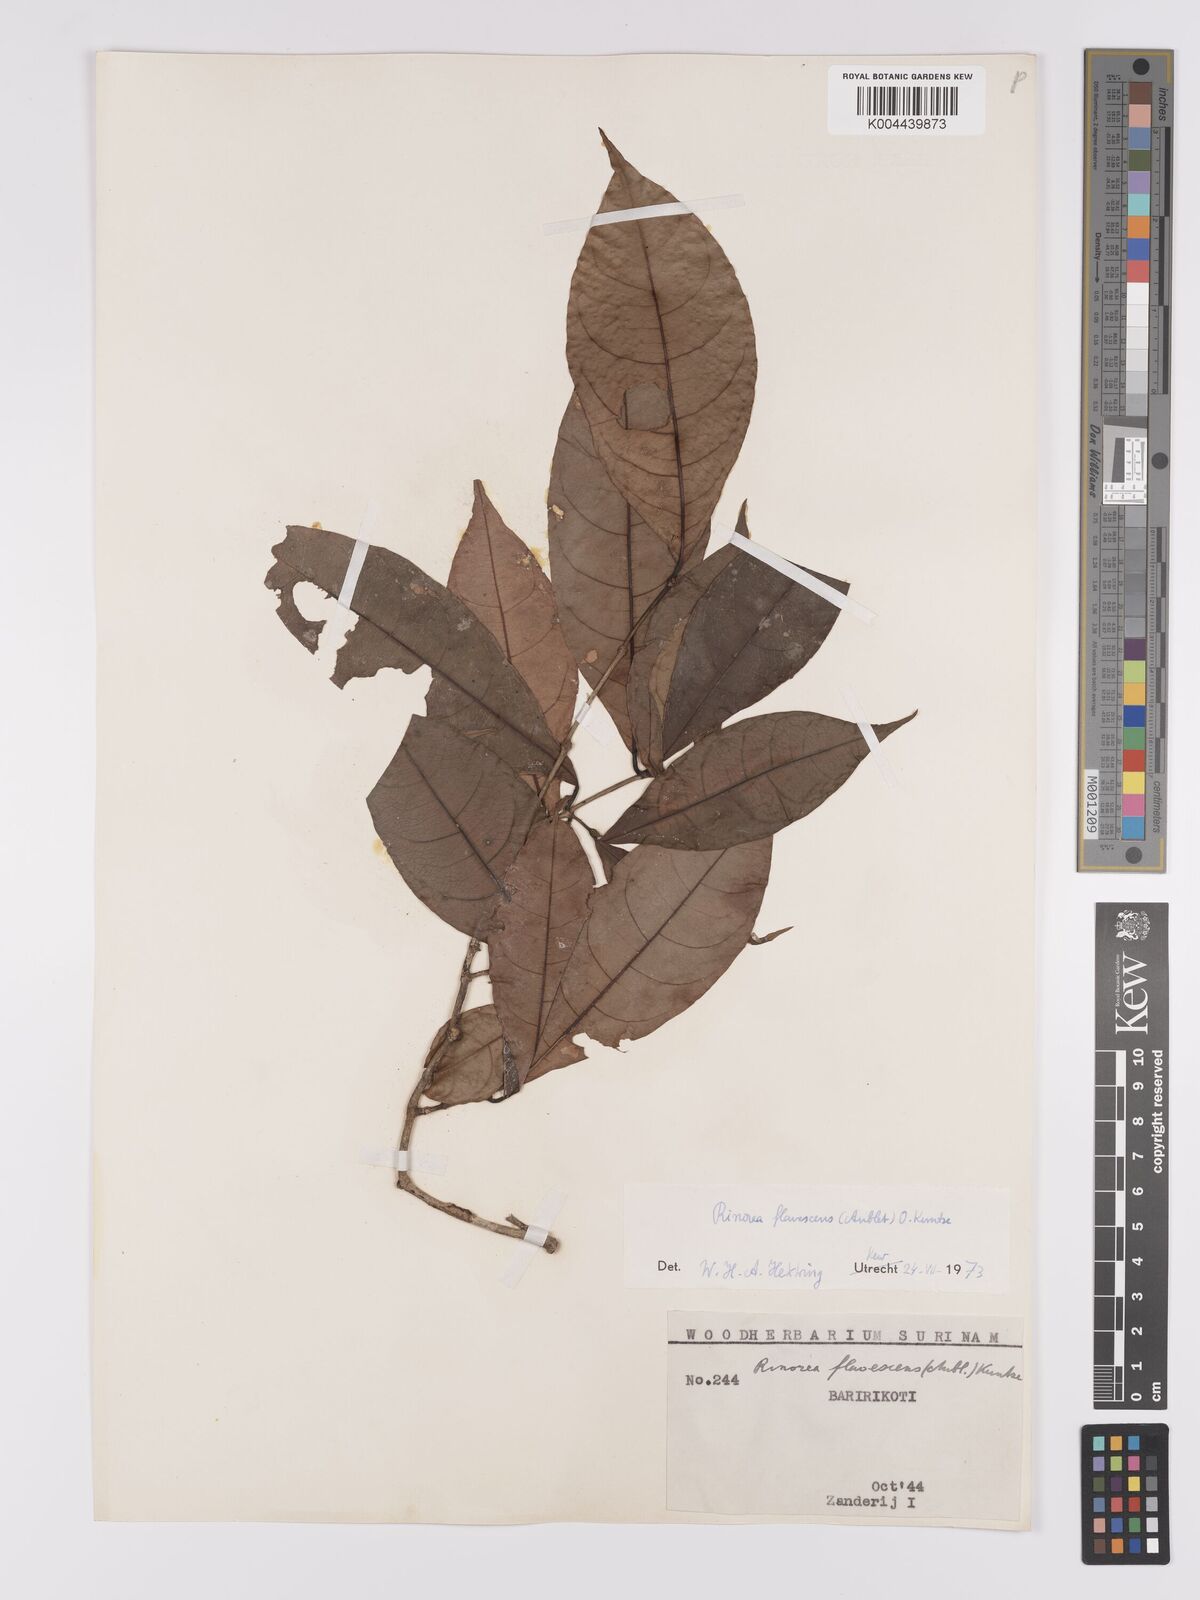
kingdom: Plantae
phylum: Tracheophyta
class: Magnoliopsida
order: Malpighiales
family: Violaceae
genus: Rinorea
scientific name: Rinorea flavescens
